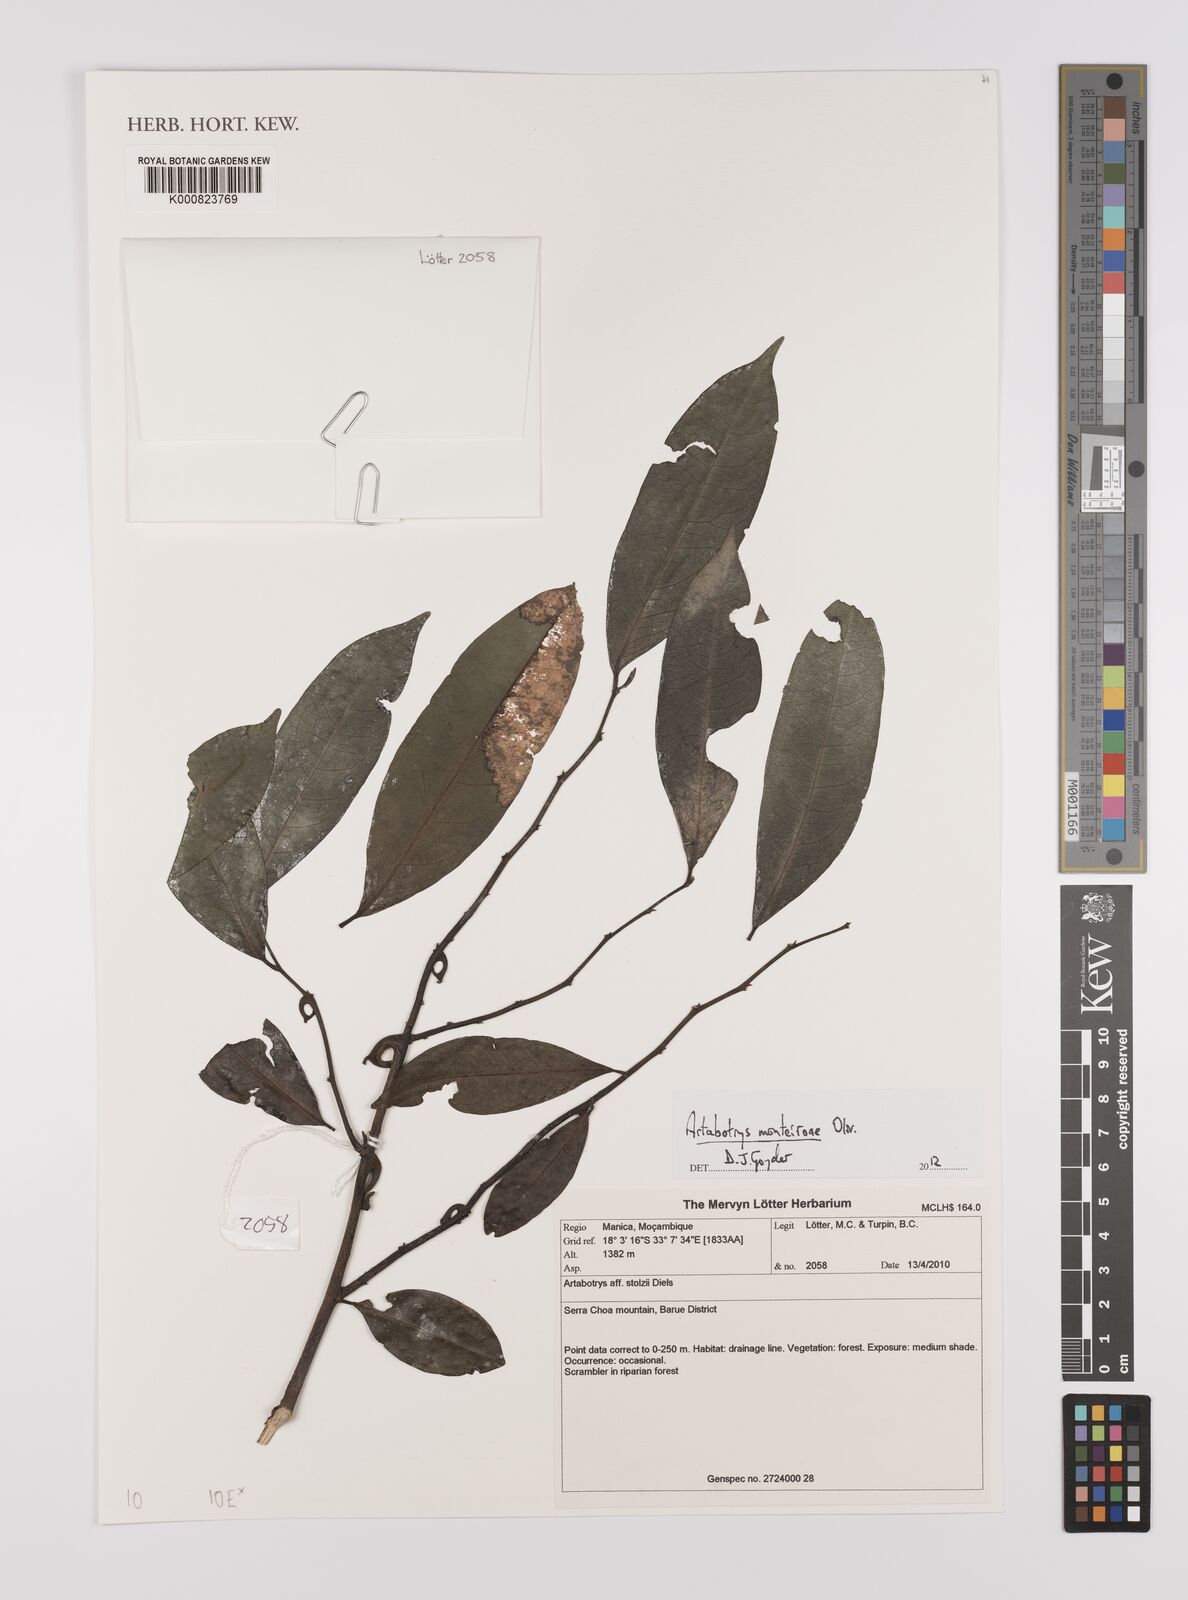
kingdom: Plantae
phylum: Tracheophyta
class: Magnoliopsida
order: Magnoliales
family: Annonaceae
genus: Artabotrys
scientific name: Artabotrys monteiroae
